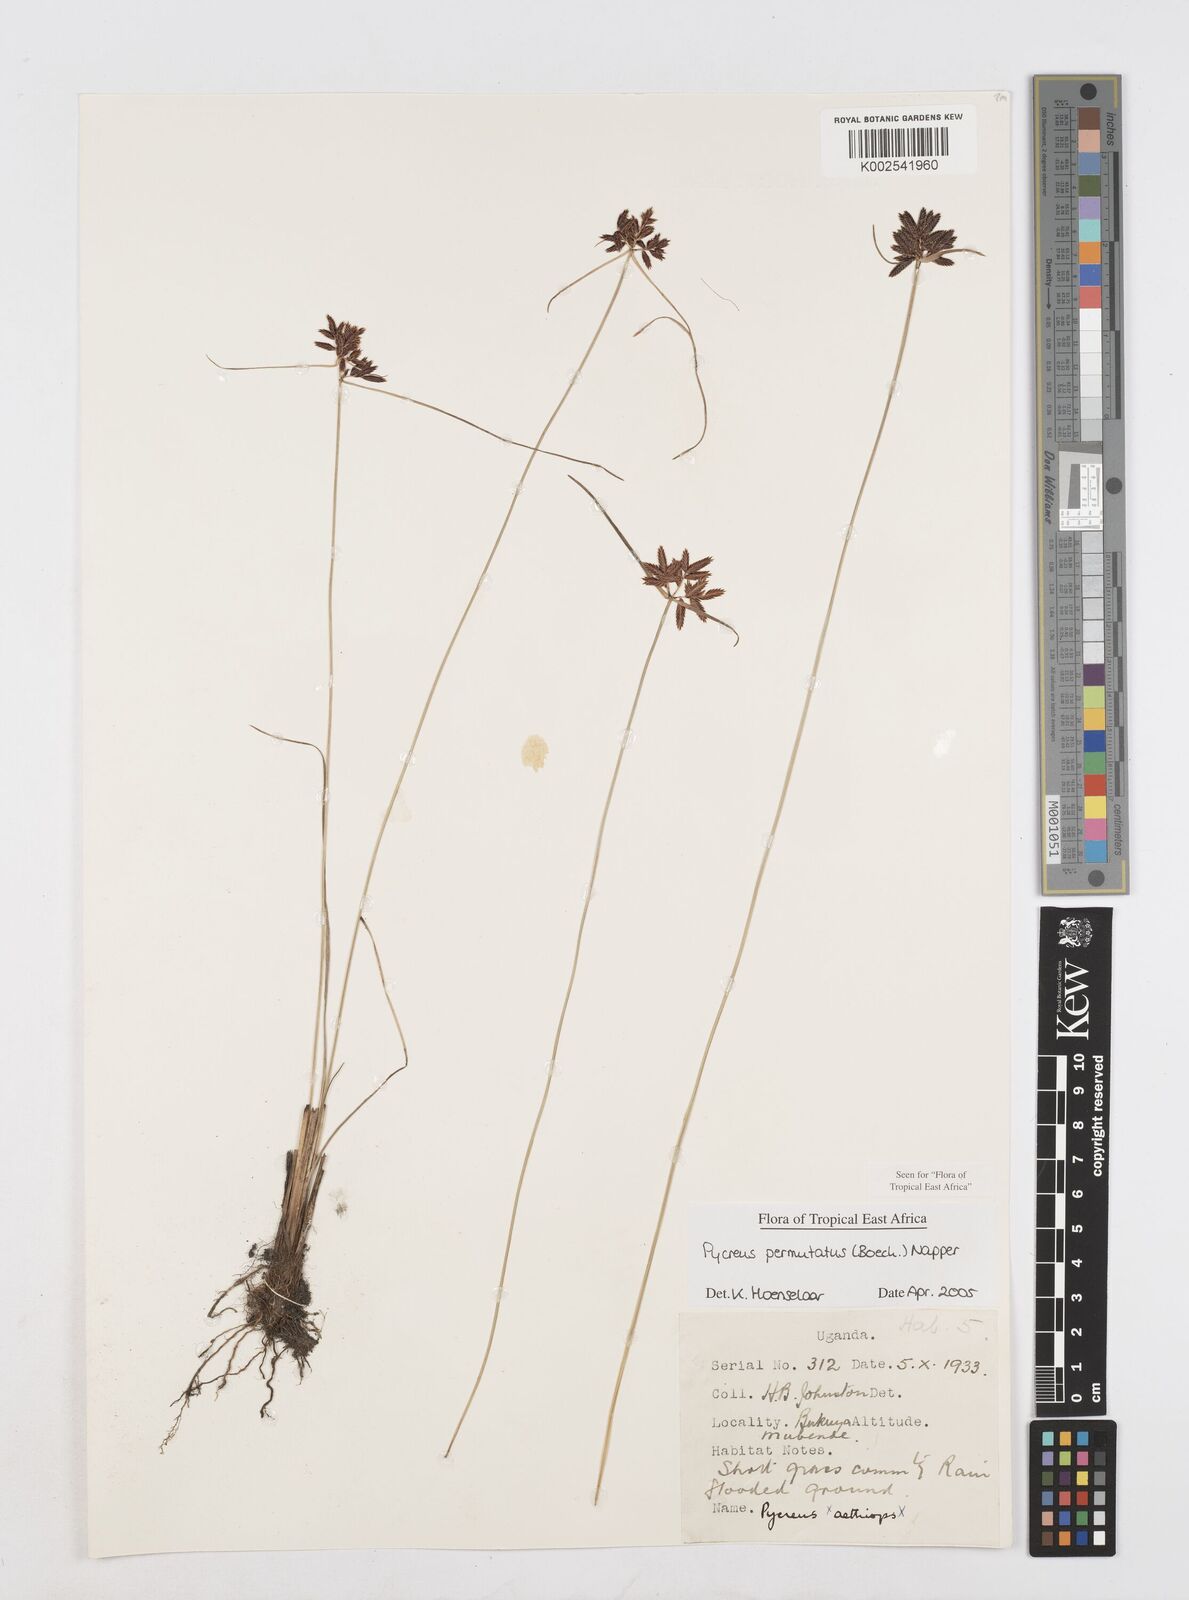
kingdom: Plantae
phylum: Tracheophyta
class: Liliopsida
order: Poales
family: Cyperaceae
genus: Cyperus
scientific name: Cyperus nigricans
